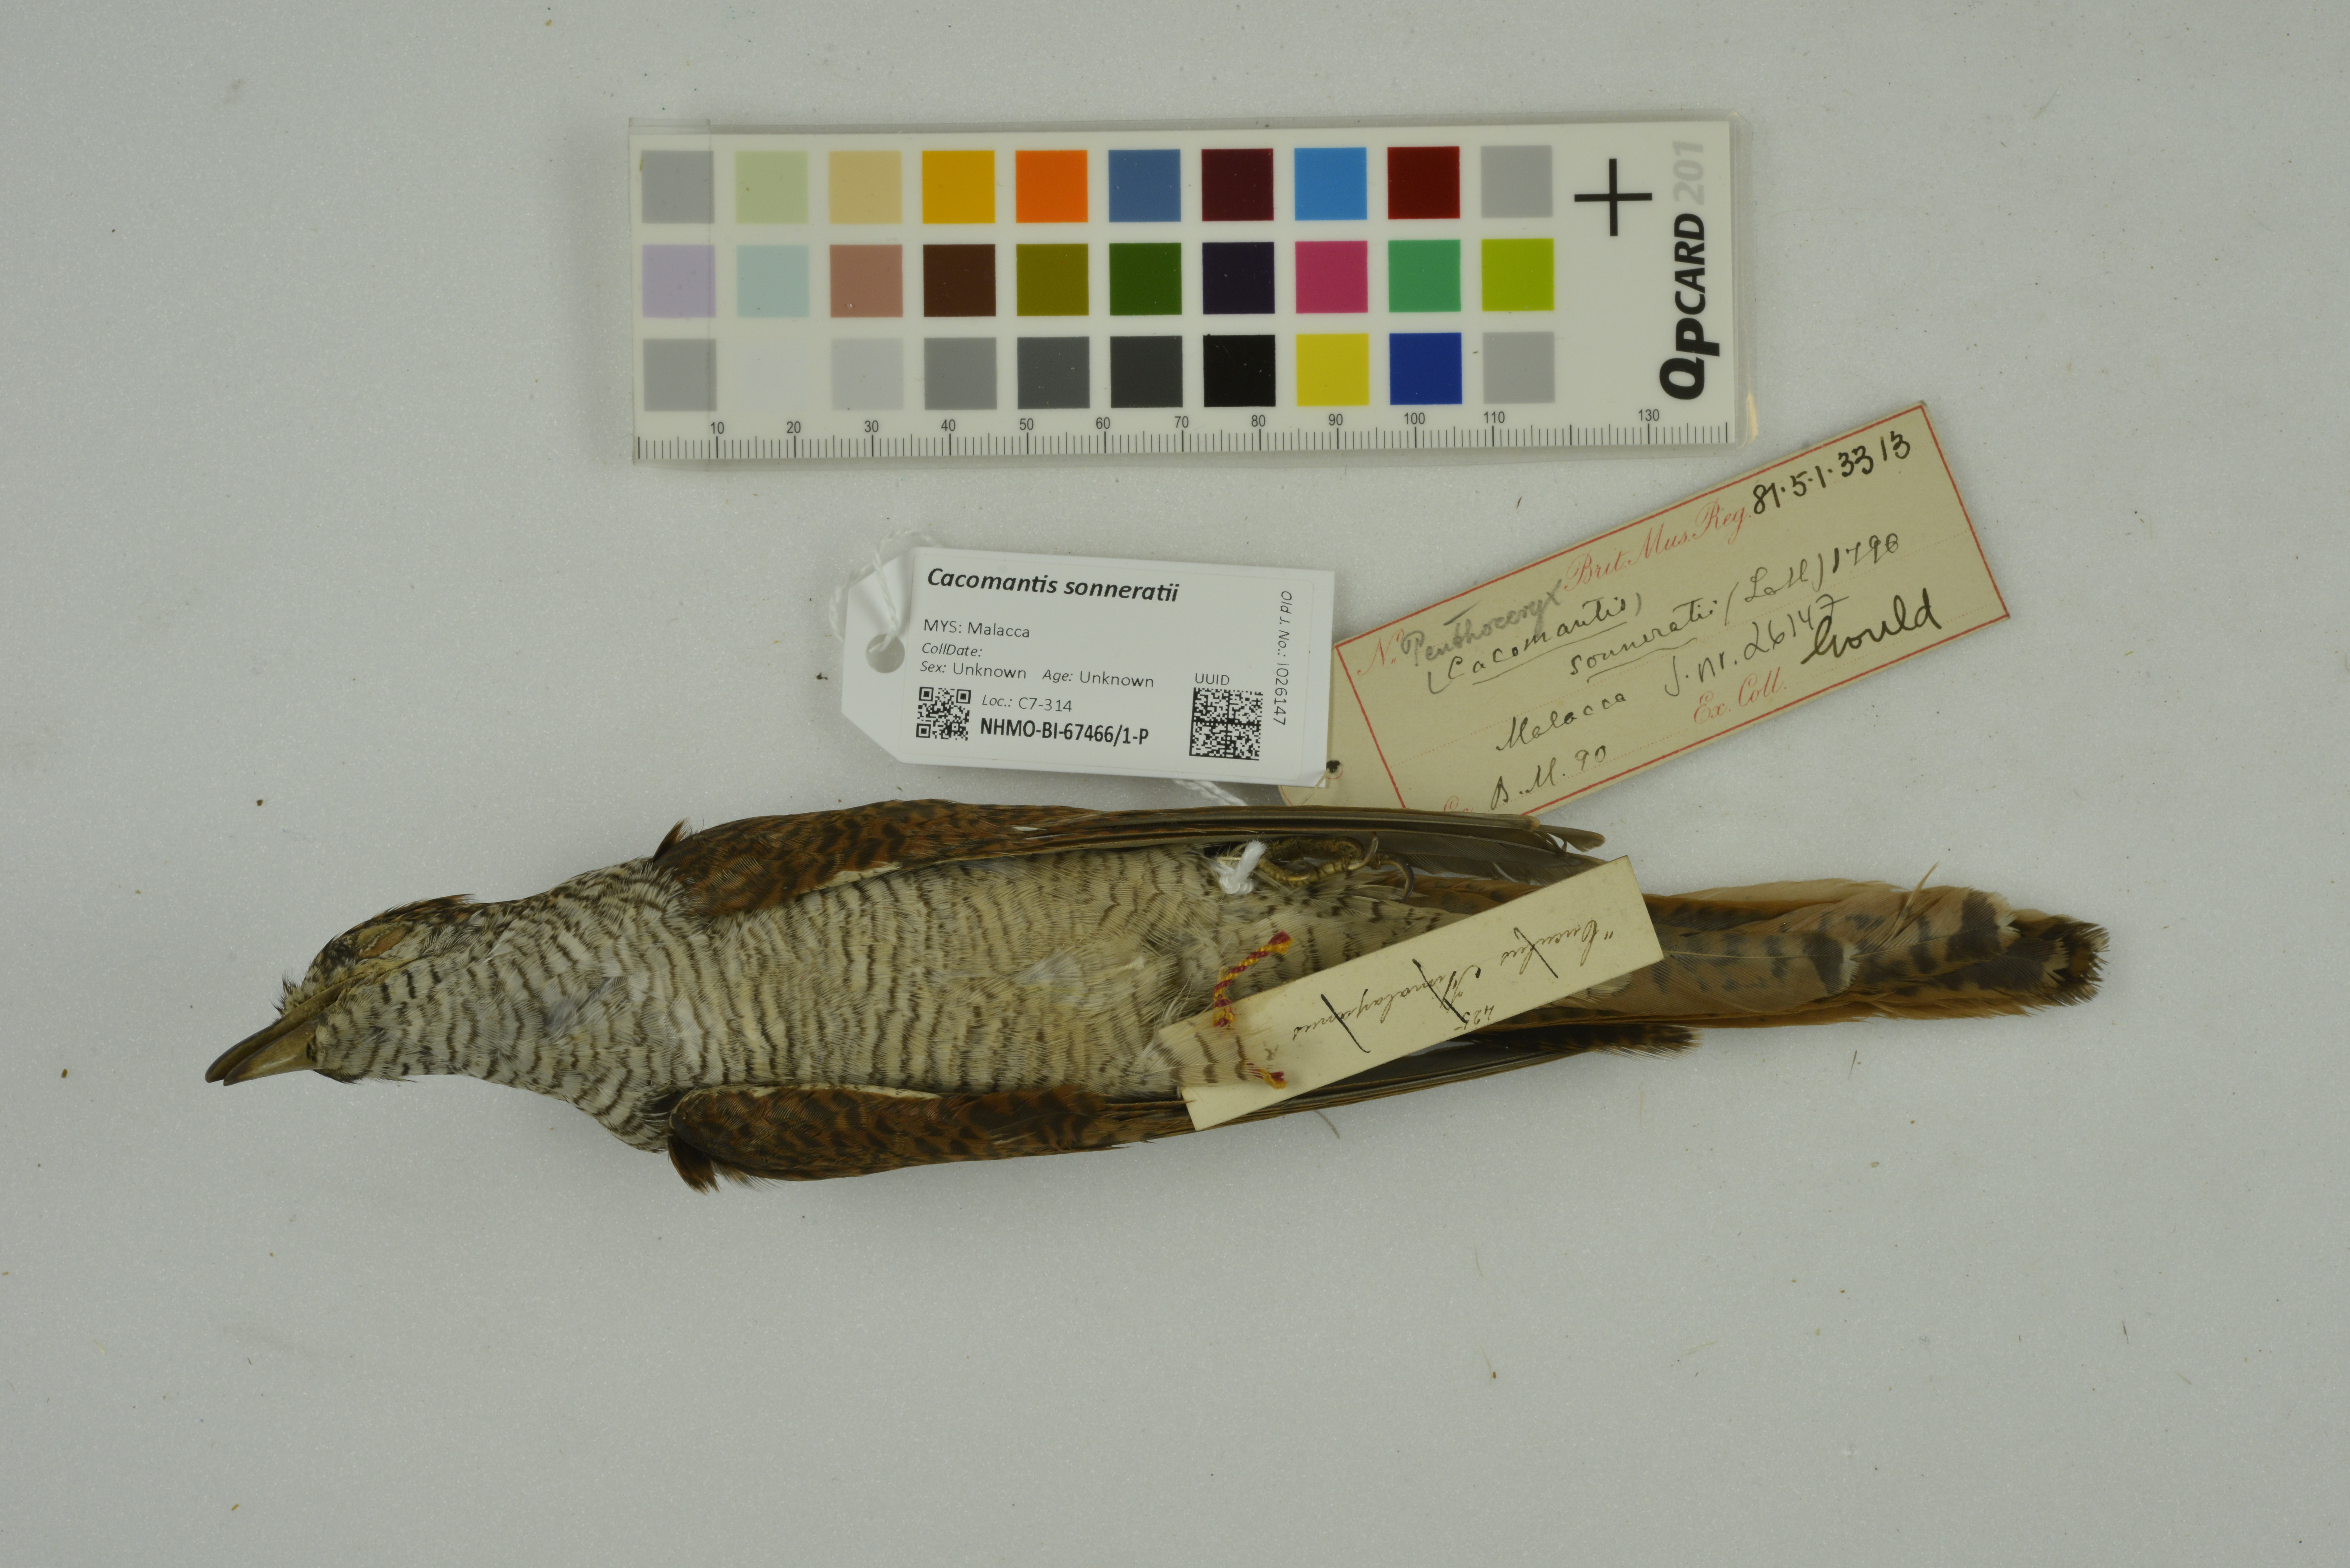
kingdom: Animalia
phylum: Chordata
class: Aves
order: Cuculiformes
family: Cuculidae
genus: Cacomantis
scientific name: Cacomantis sonneratii
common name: Banded bay cuckoo
